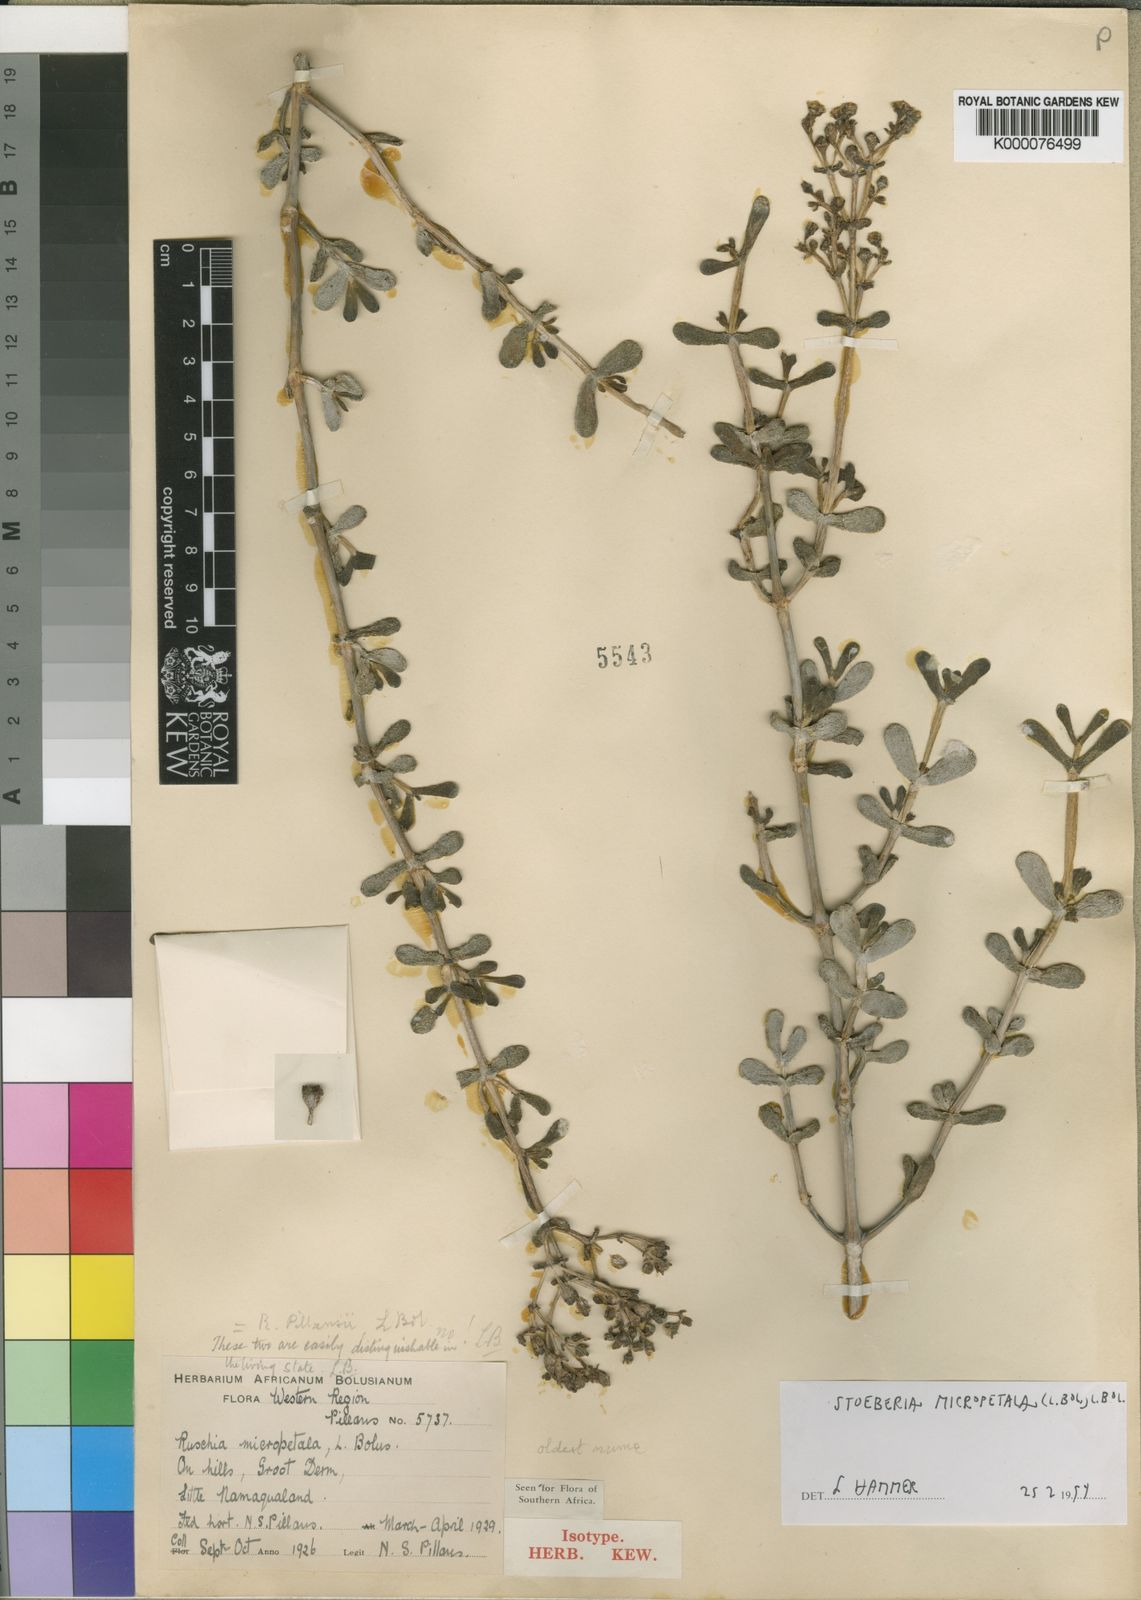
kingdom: Plantae
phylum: Tracheophyta
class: Magnoliopsida
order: Caryophyllales
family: Aizoaceae
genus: Stoeberia
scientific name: Stoeberia
